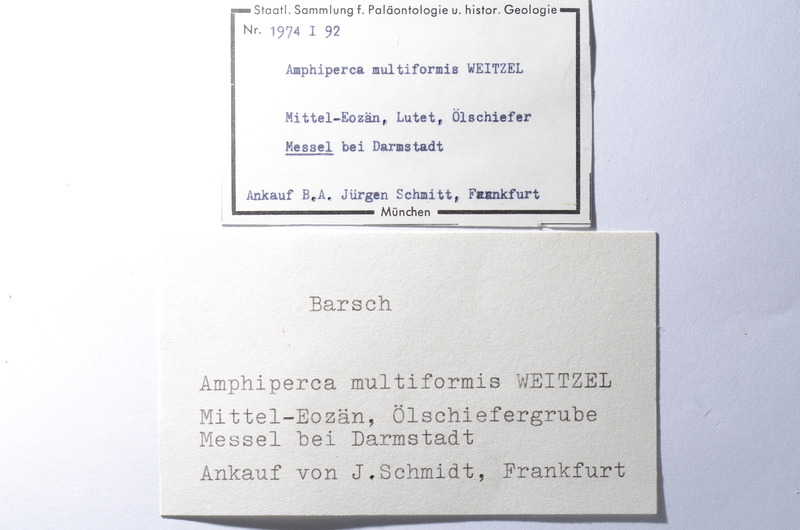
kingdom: Animalia
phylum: Chordata
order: Perciformes
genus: Amphiperca
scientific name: Amphiperca
